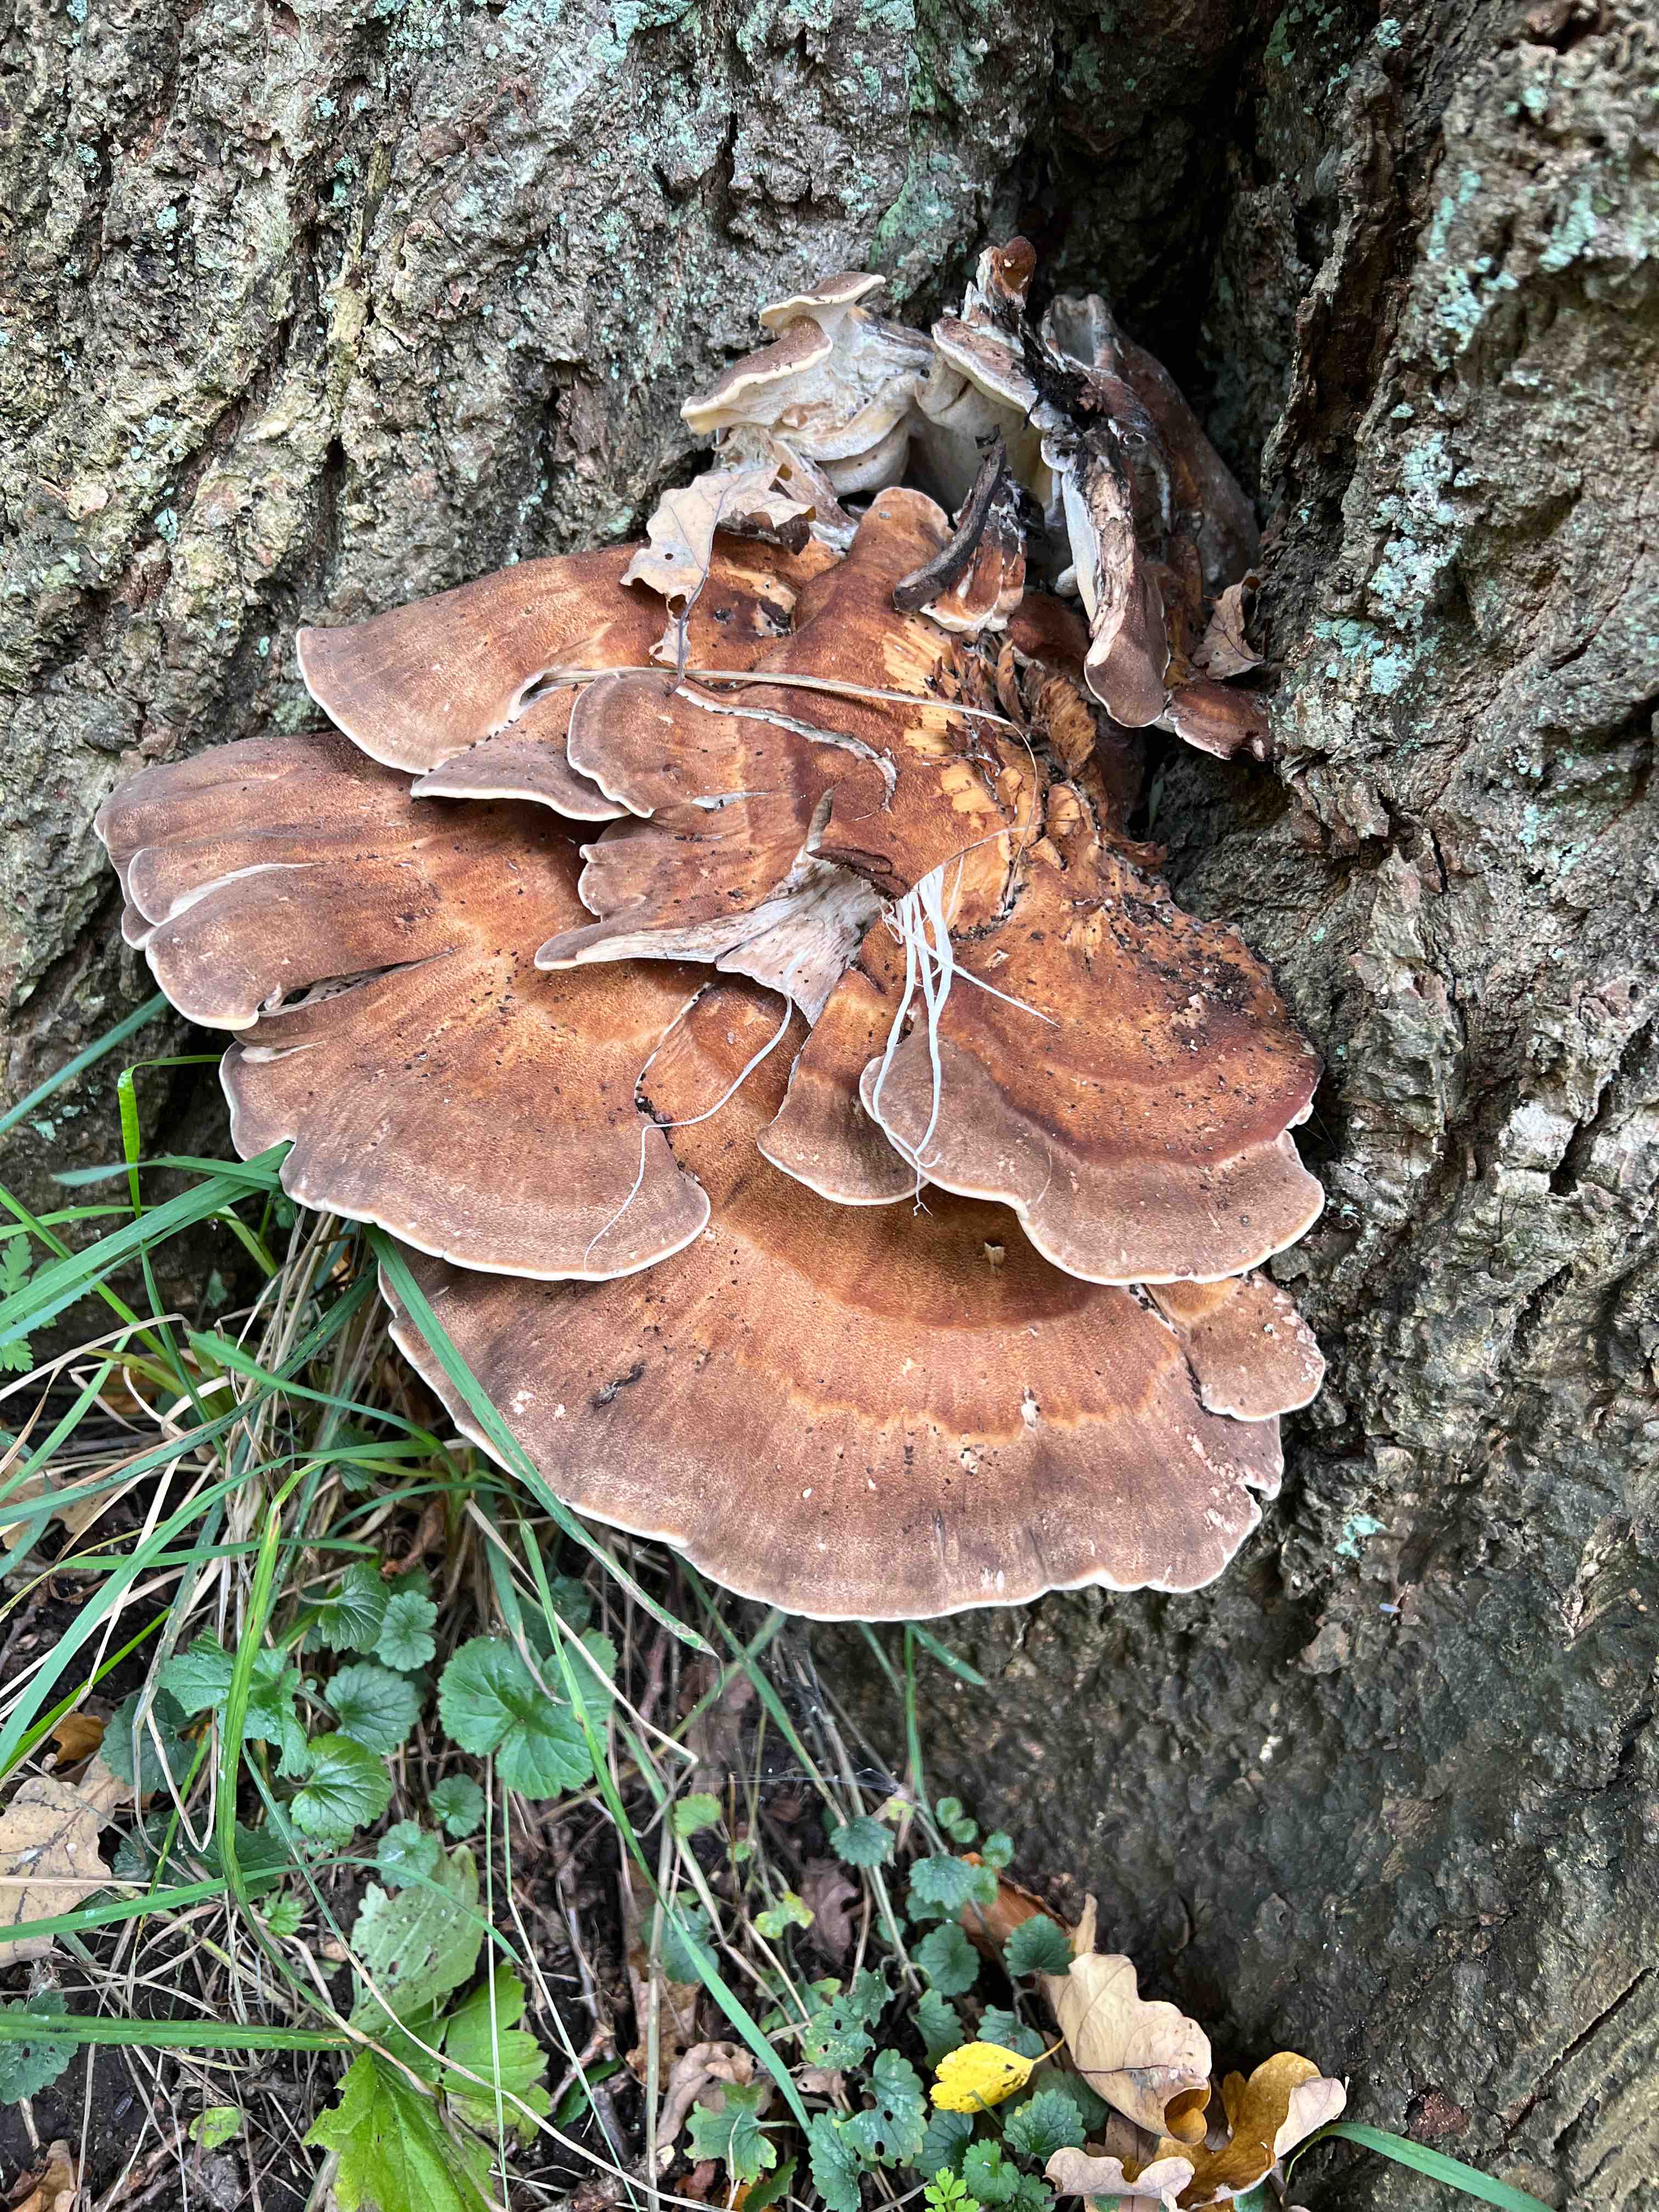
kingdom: Fungi
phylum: Basidiomycota
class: Agaricomycetes
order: Polyporales
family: Meripilaceae
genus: Meripilus
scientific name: Meripilus giganteus
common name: kæmpeporesvamp
